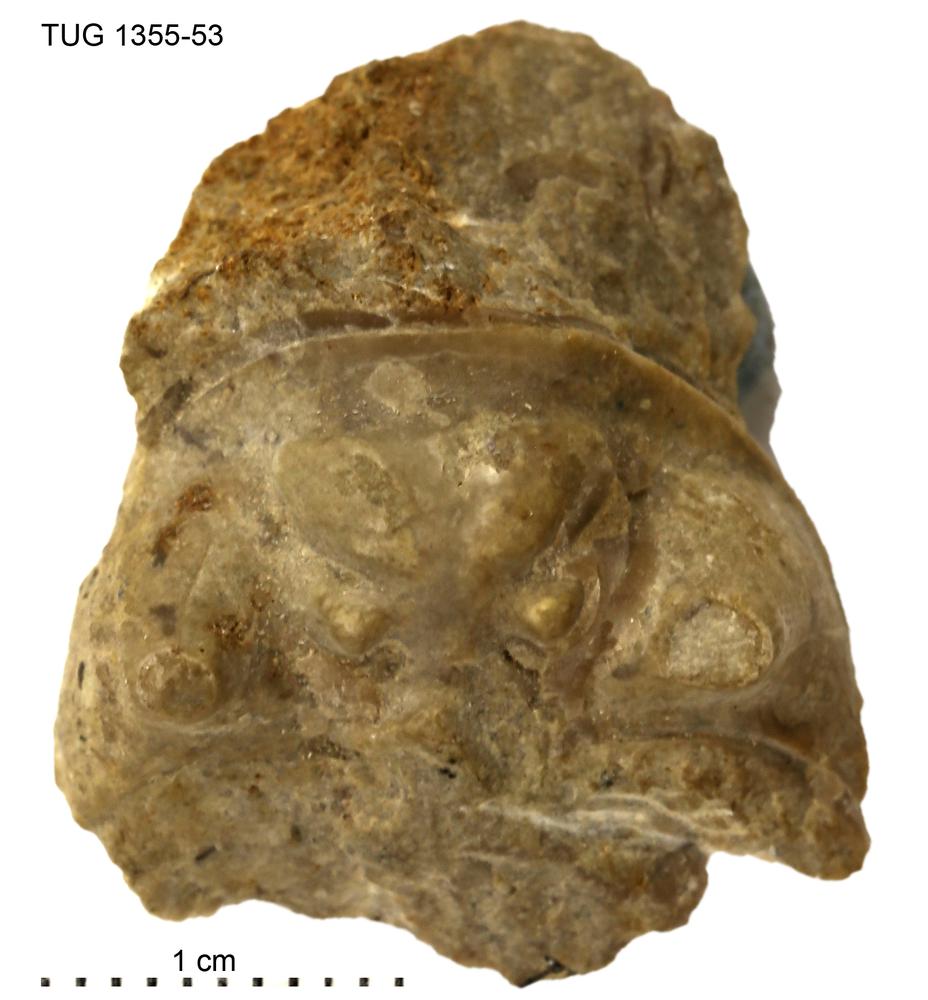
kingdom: Animalia
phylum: Arthropoda
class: Trilobita
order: Phacopida
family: Pterygometopidae
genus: Scopelochasmops
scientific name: Scopelochasmops
